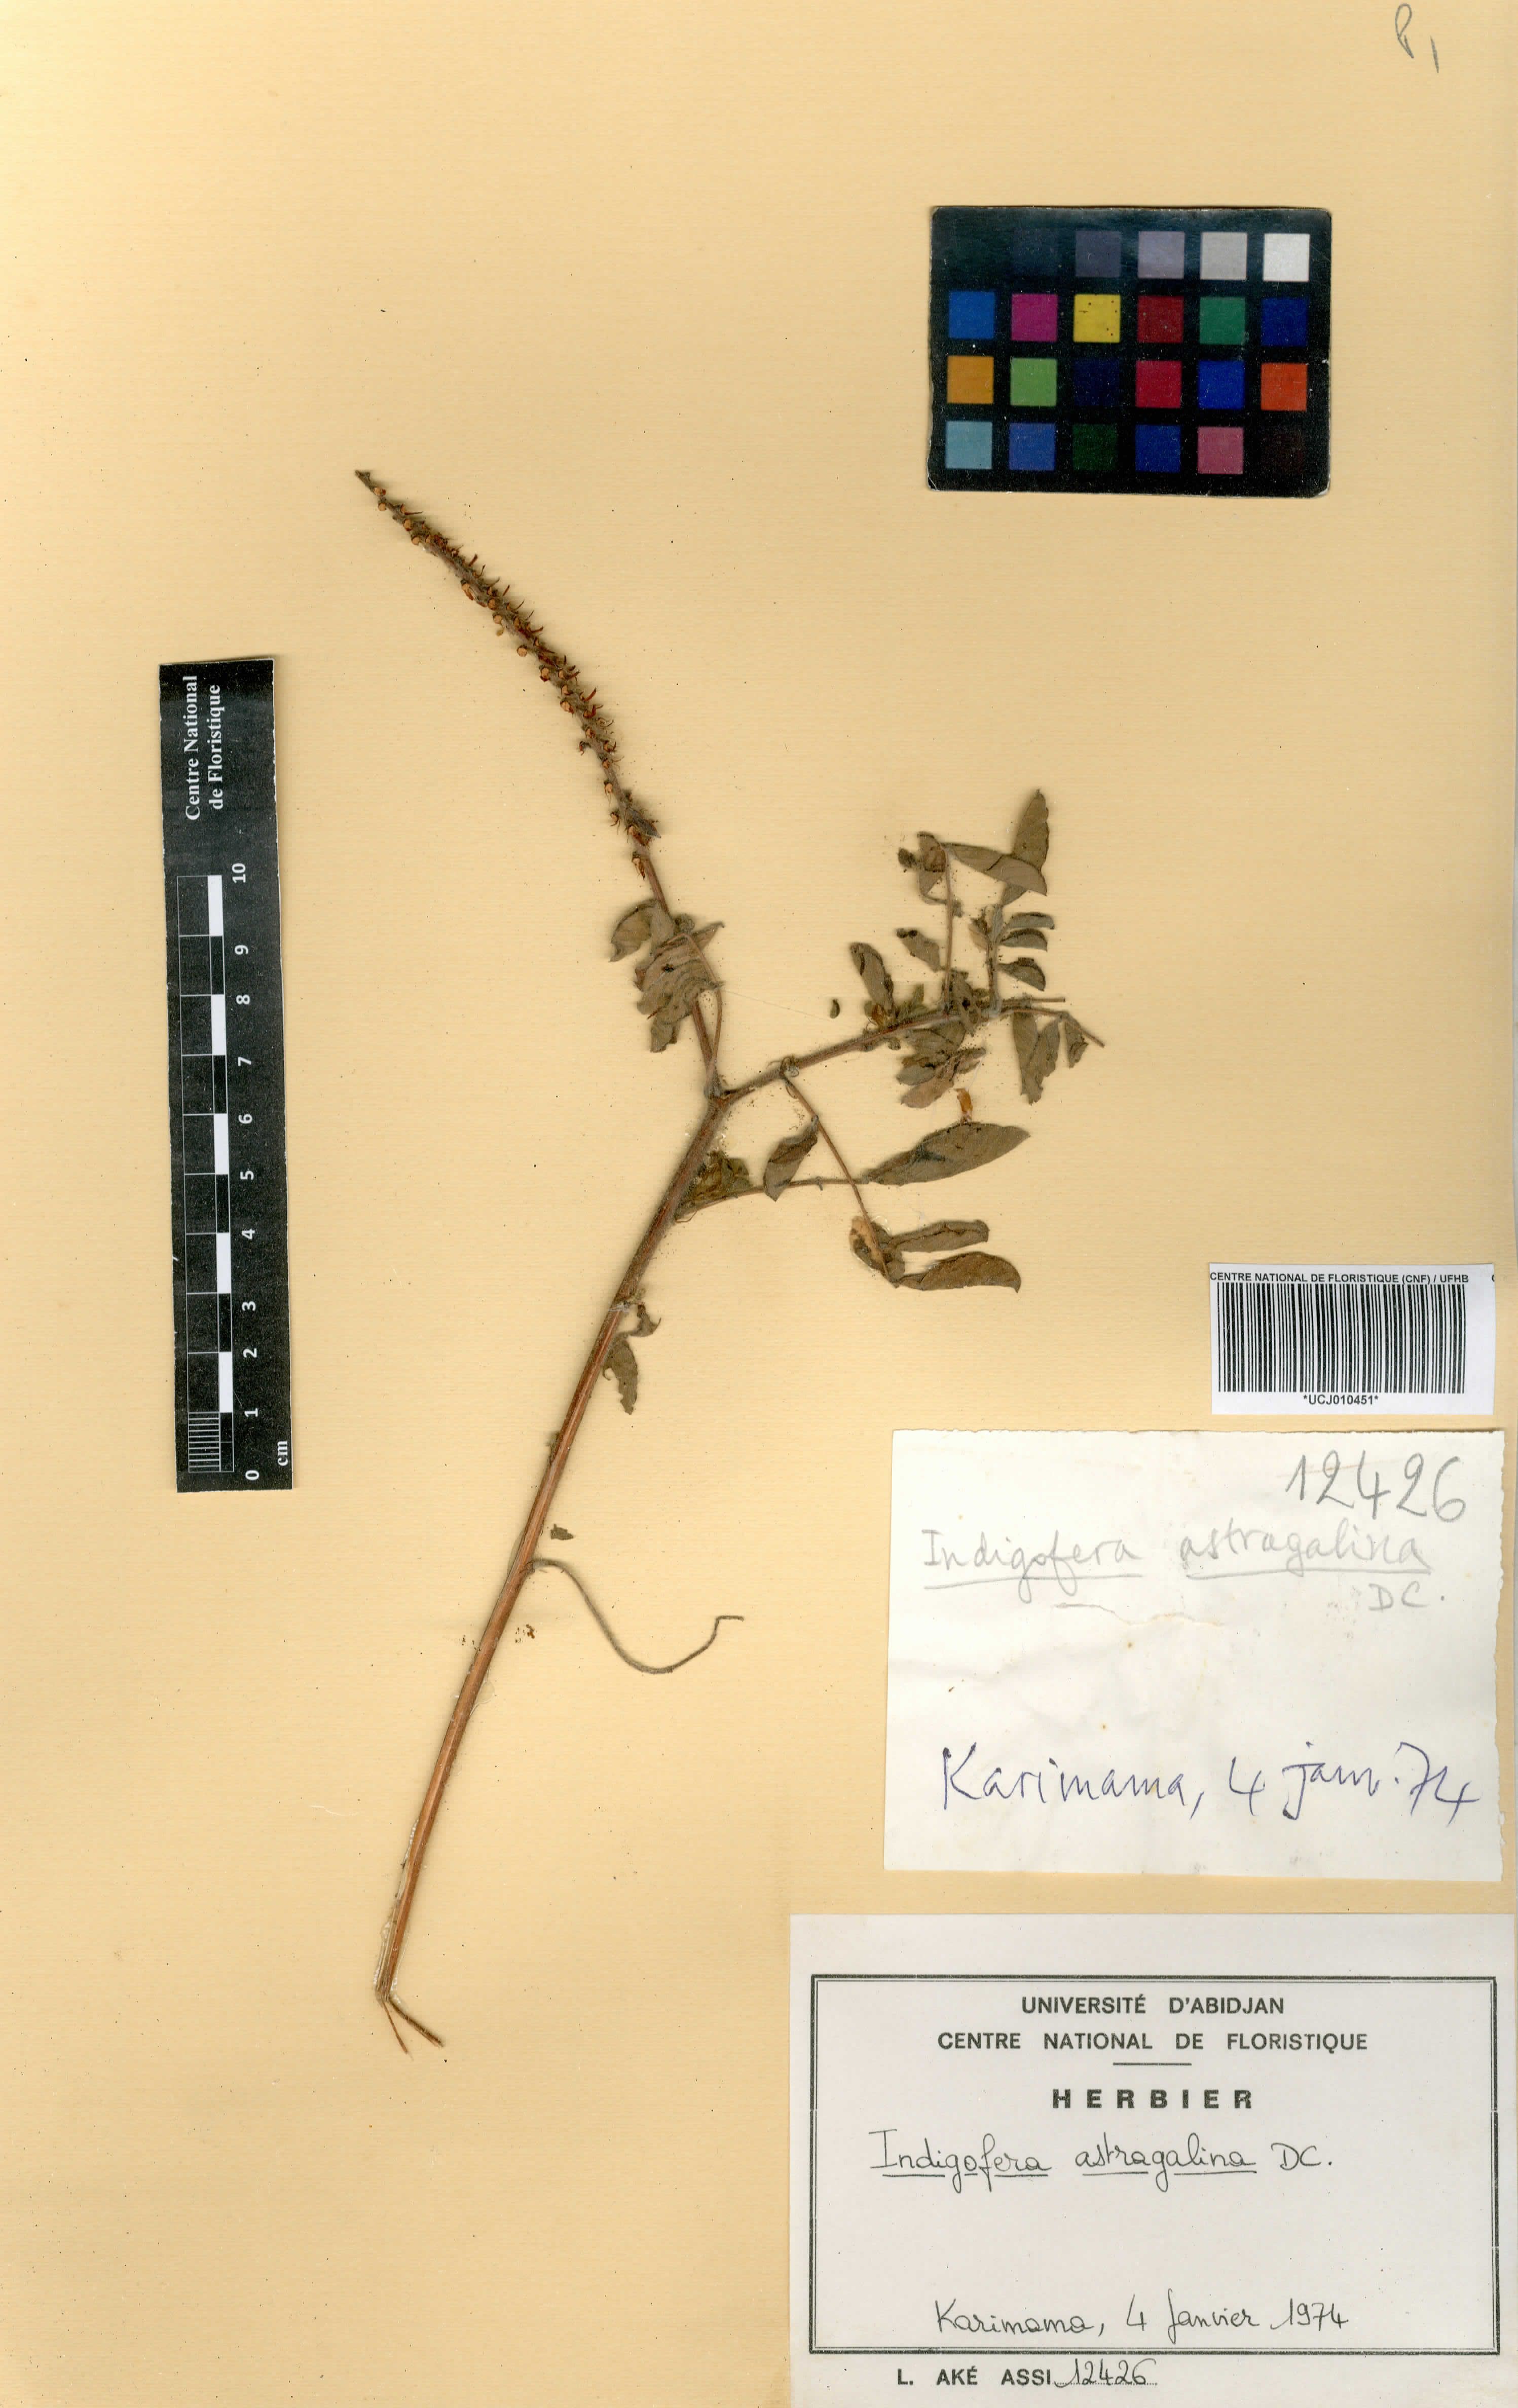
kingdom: Plantae
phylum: Tracheophyta
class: Magnoliopsida
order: Fabales
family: Fabaceae
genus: Indigofera
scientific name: Indigofera astragalina
